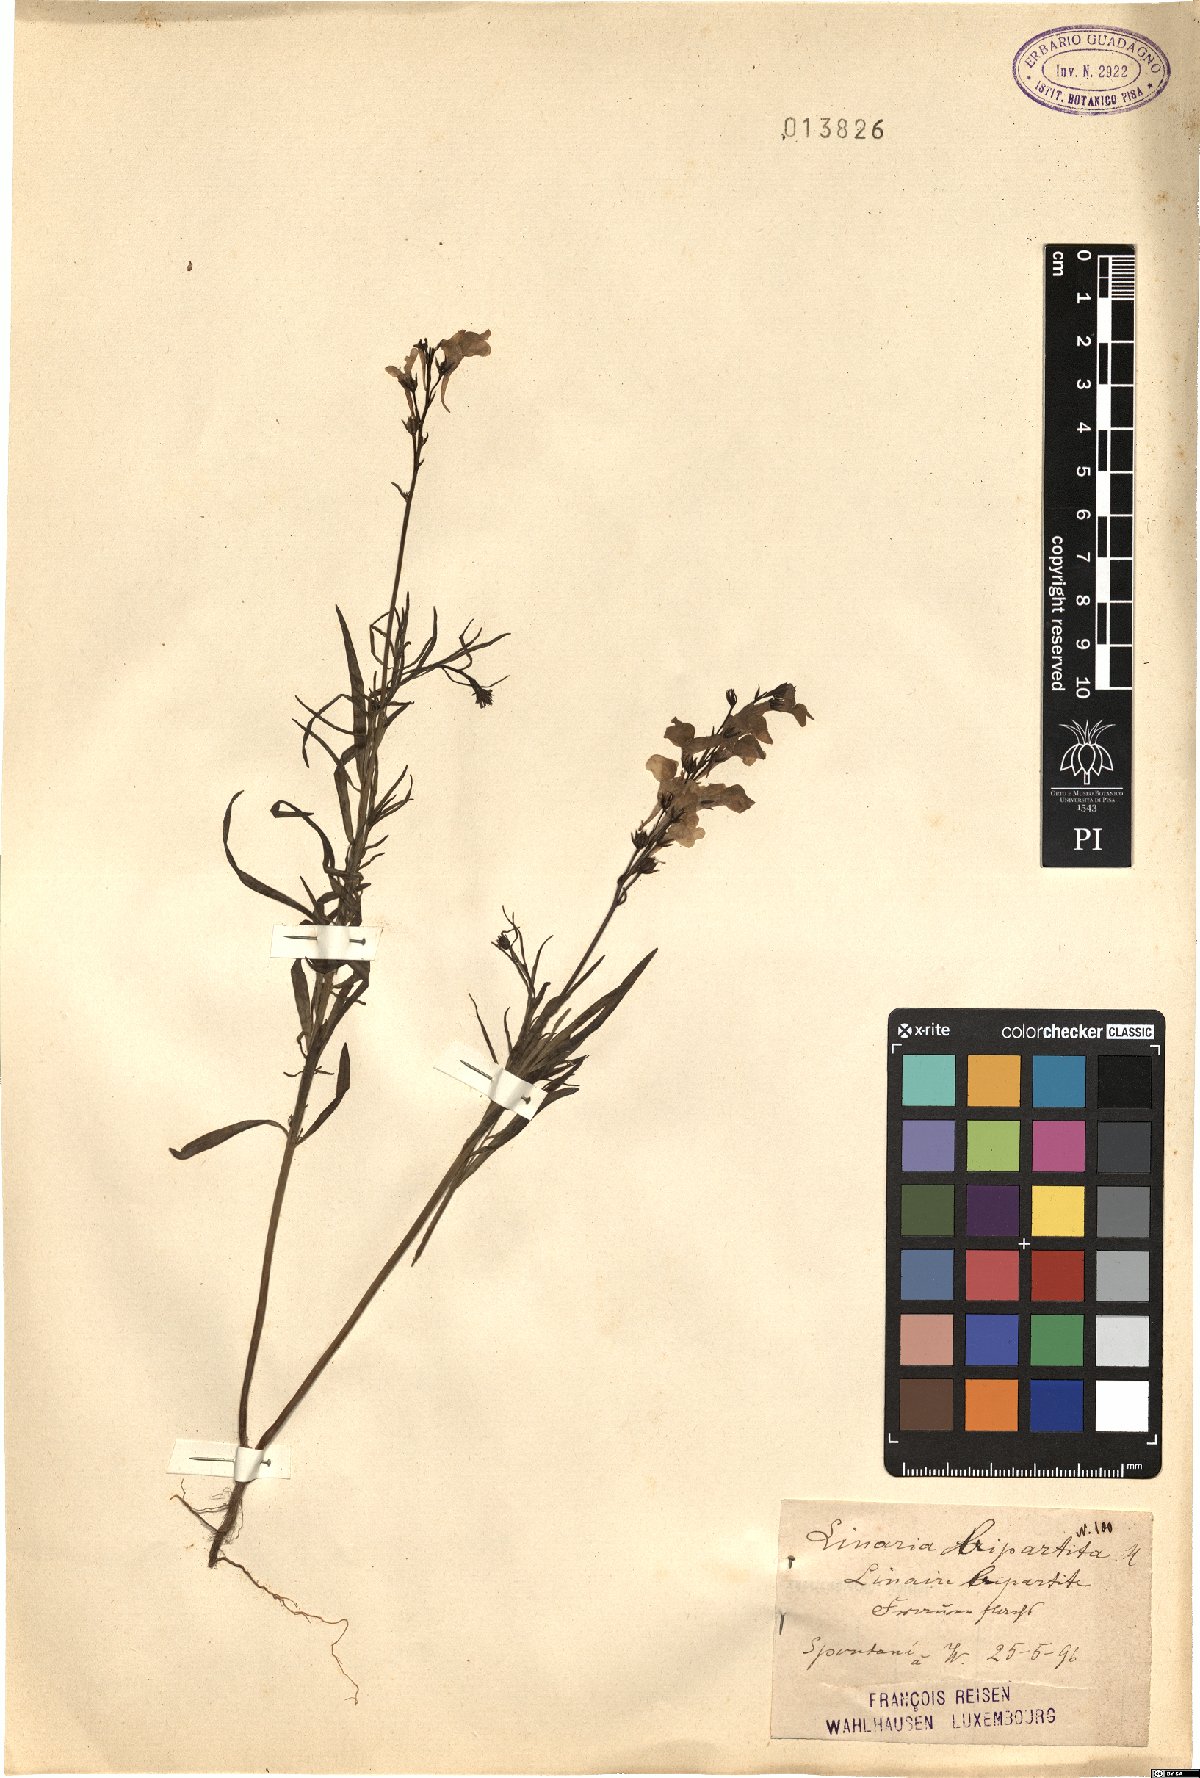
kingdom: Plantae
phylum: Tracheophyta
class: Magnoliopsida
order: Lamiales
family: Plantaginaceae
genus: Linaria
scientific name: Linaria bipartita
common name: Clovenlip toadflax
